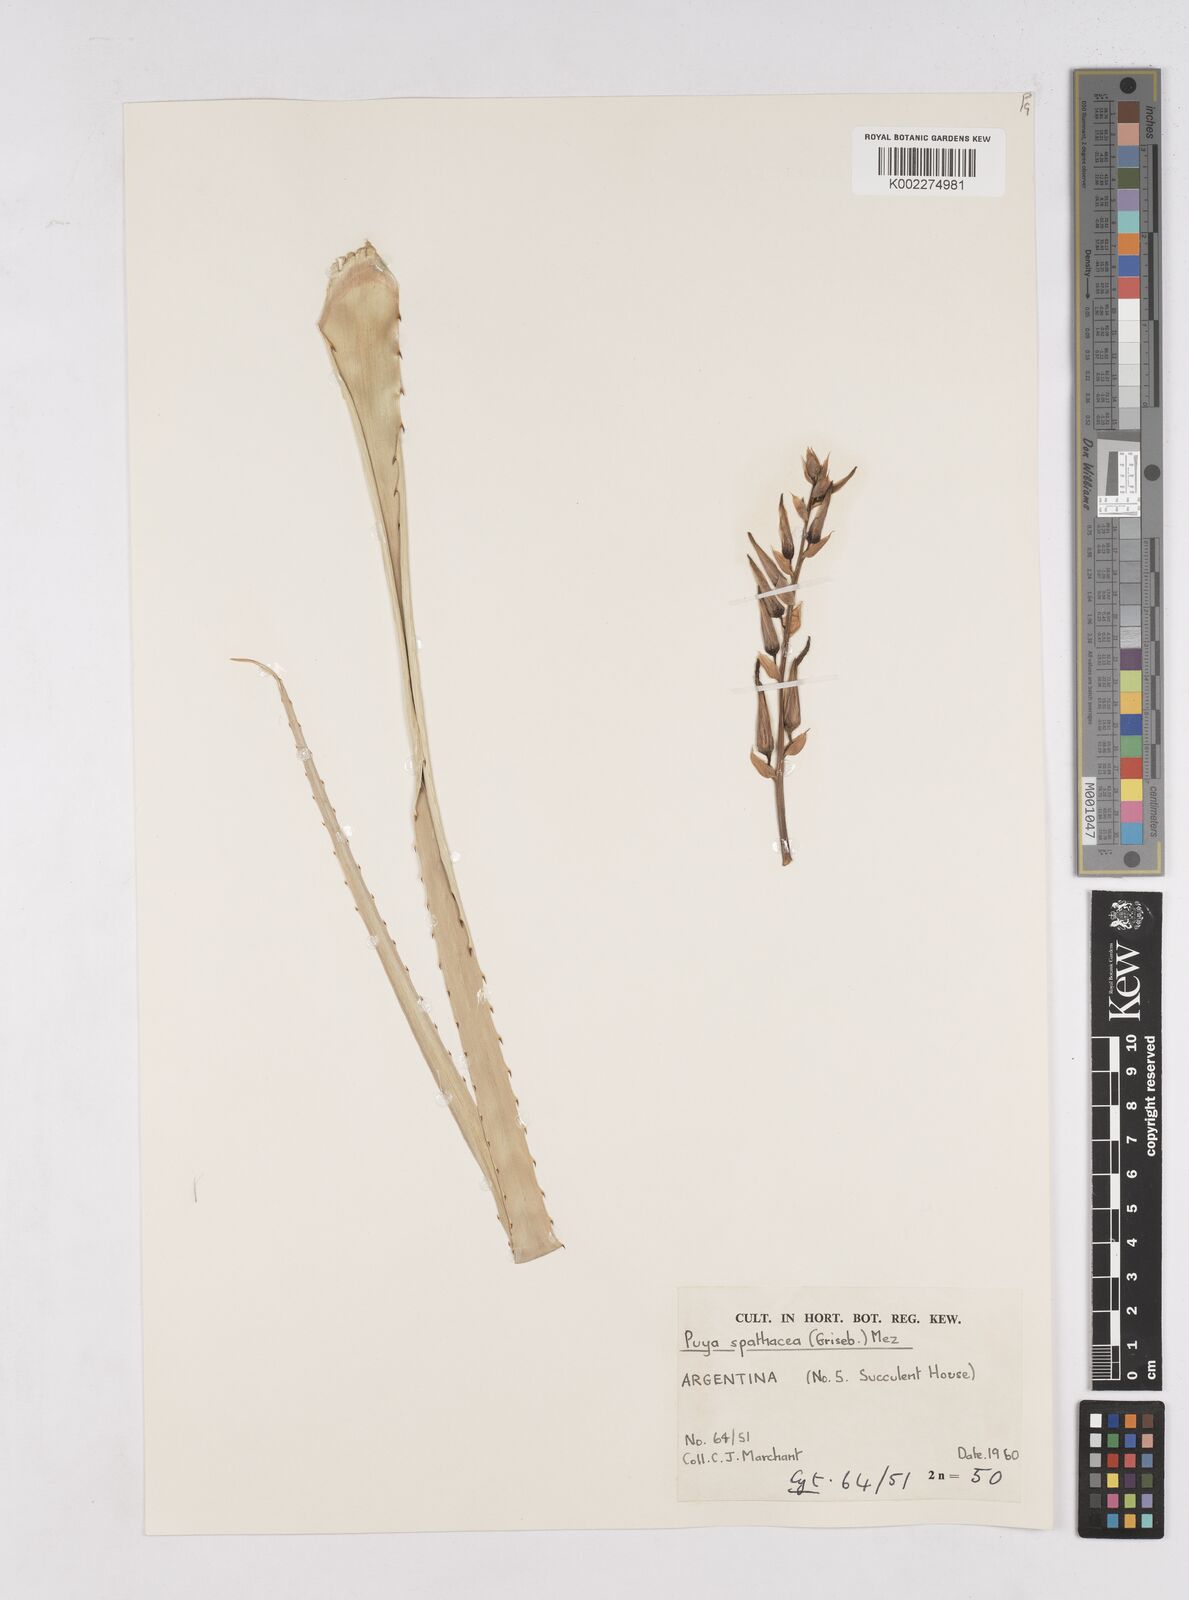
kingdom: Plantae
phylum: Tracheophyta
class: Liliopsida
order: Poales
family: Bromeliaceae
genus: Puya
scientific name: Puya spathacea
